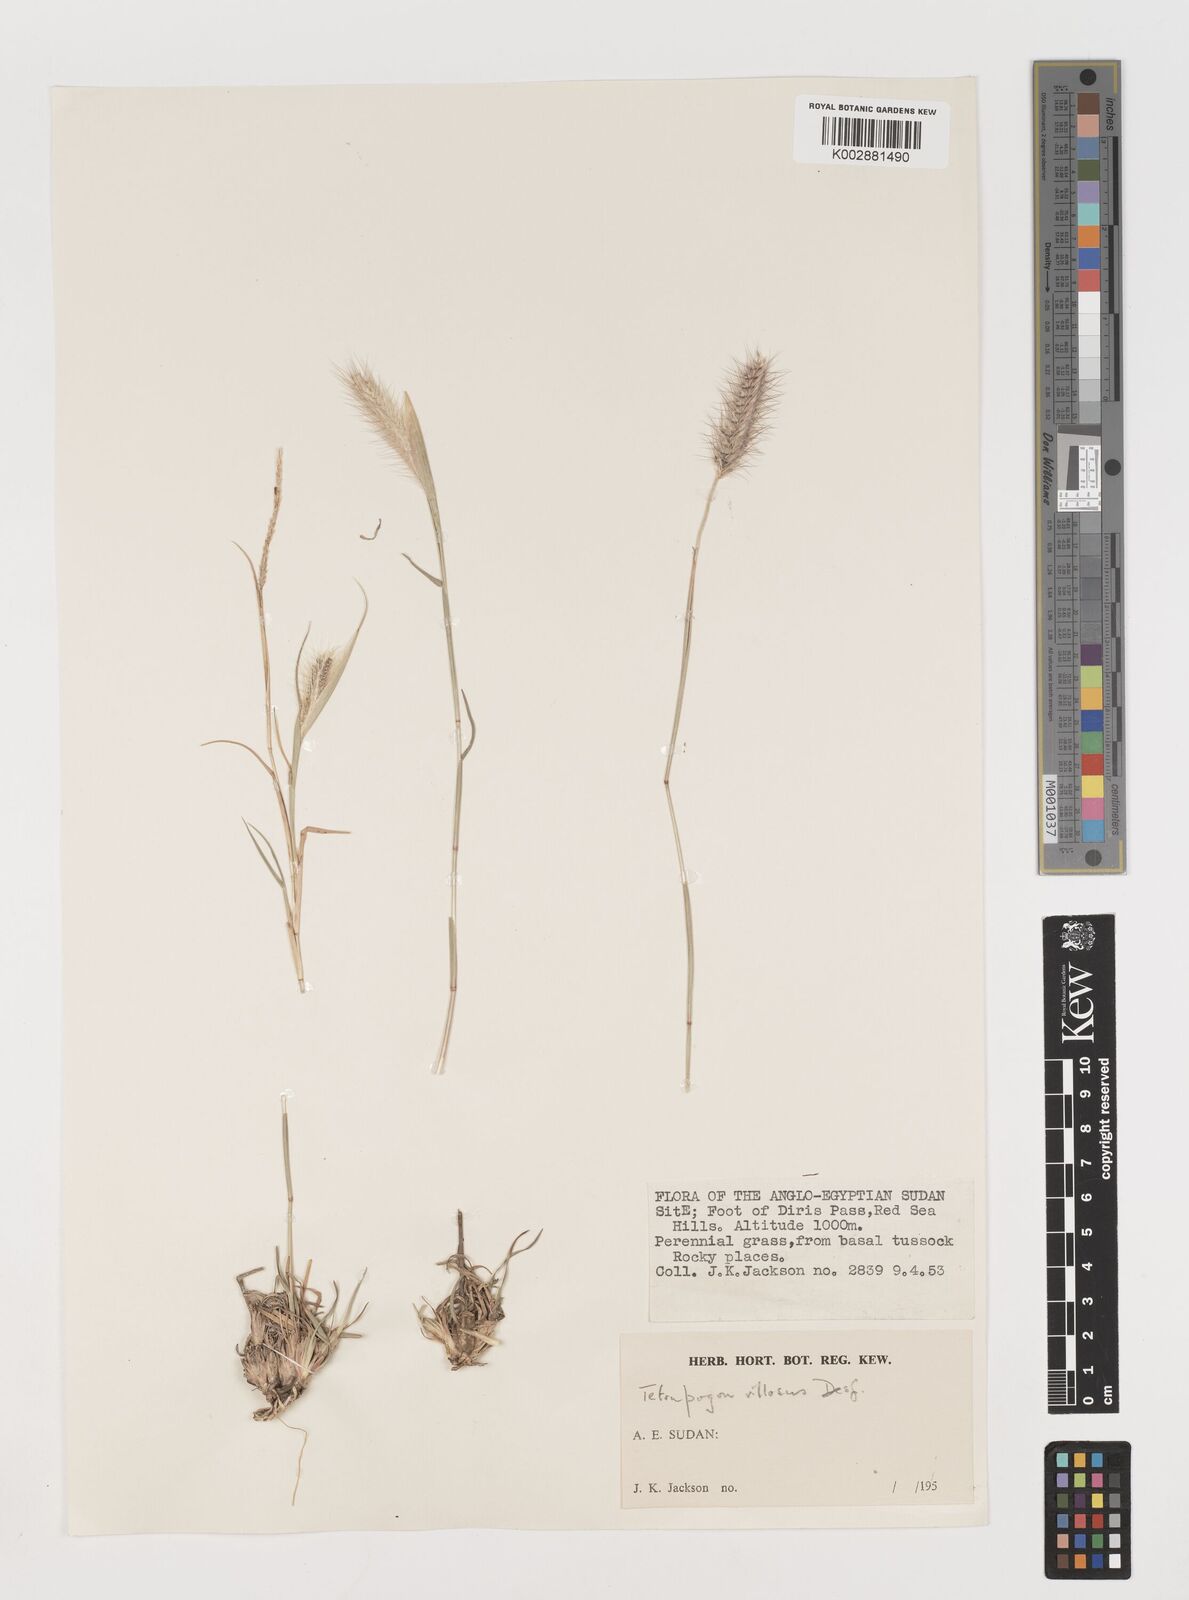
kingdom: Plantae
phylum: Tracheophyta
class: Liliopsida
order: Poales
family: Poaceae
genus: Tetrapogon
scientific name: Tetrapogon villosus
